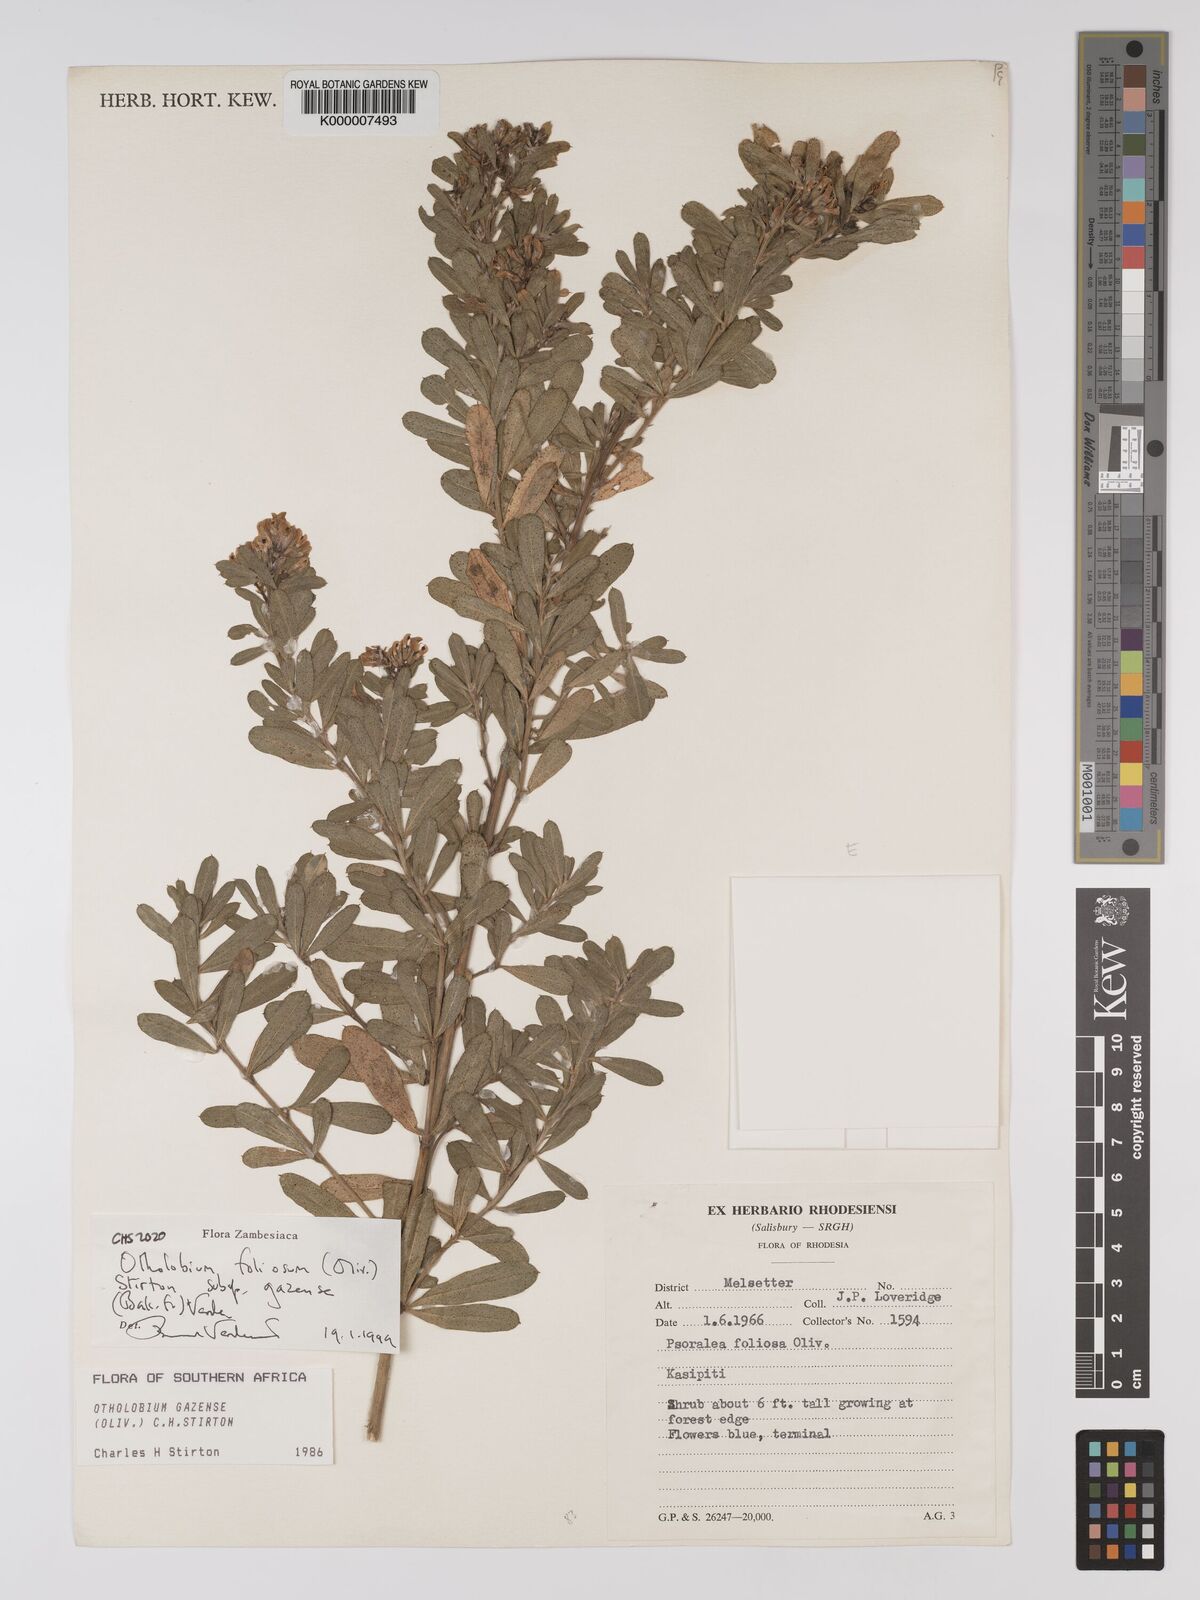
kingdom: Plantae
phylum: Tracheophyta
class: Magnoliopsida
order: Fabales
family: Fabaceae
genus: Psoralea
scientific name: Psoralea foliosa
